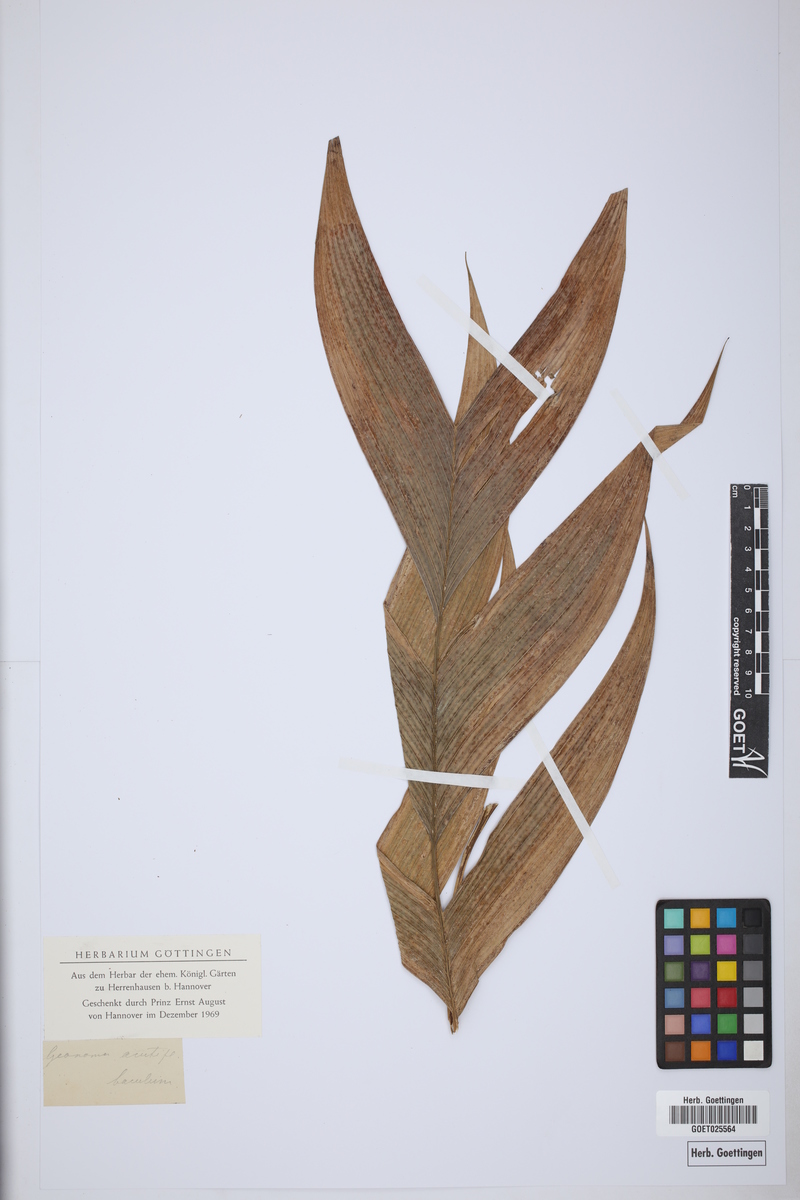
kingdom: Plantae
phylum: Tracheophyta
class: Liliopsida
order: Arecales
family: Arecaceae
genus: Geonoma
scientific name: Geonoma baculifera
